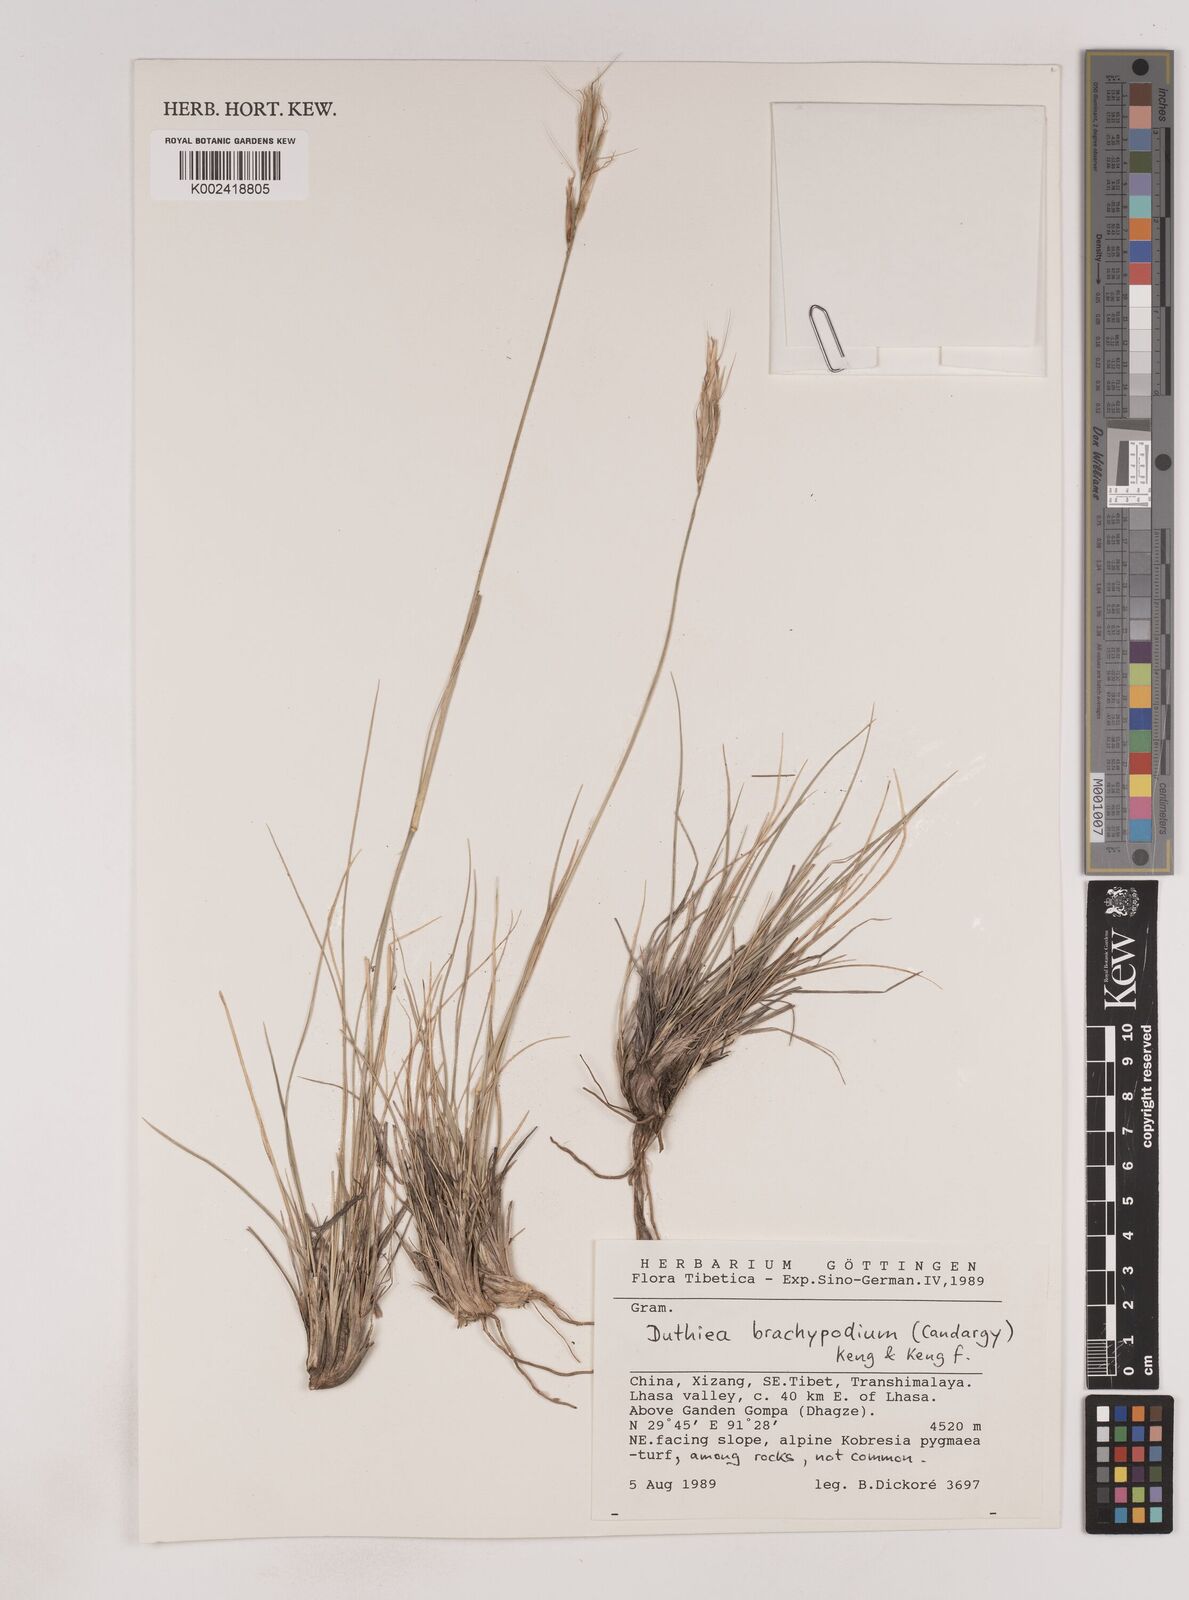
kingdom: Plantae
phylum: Tracheophyta
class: Liliopsida
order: Poales
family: Poaceae
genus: Duthiea
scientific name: Duthiea brachypodium
